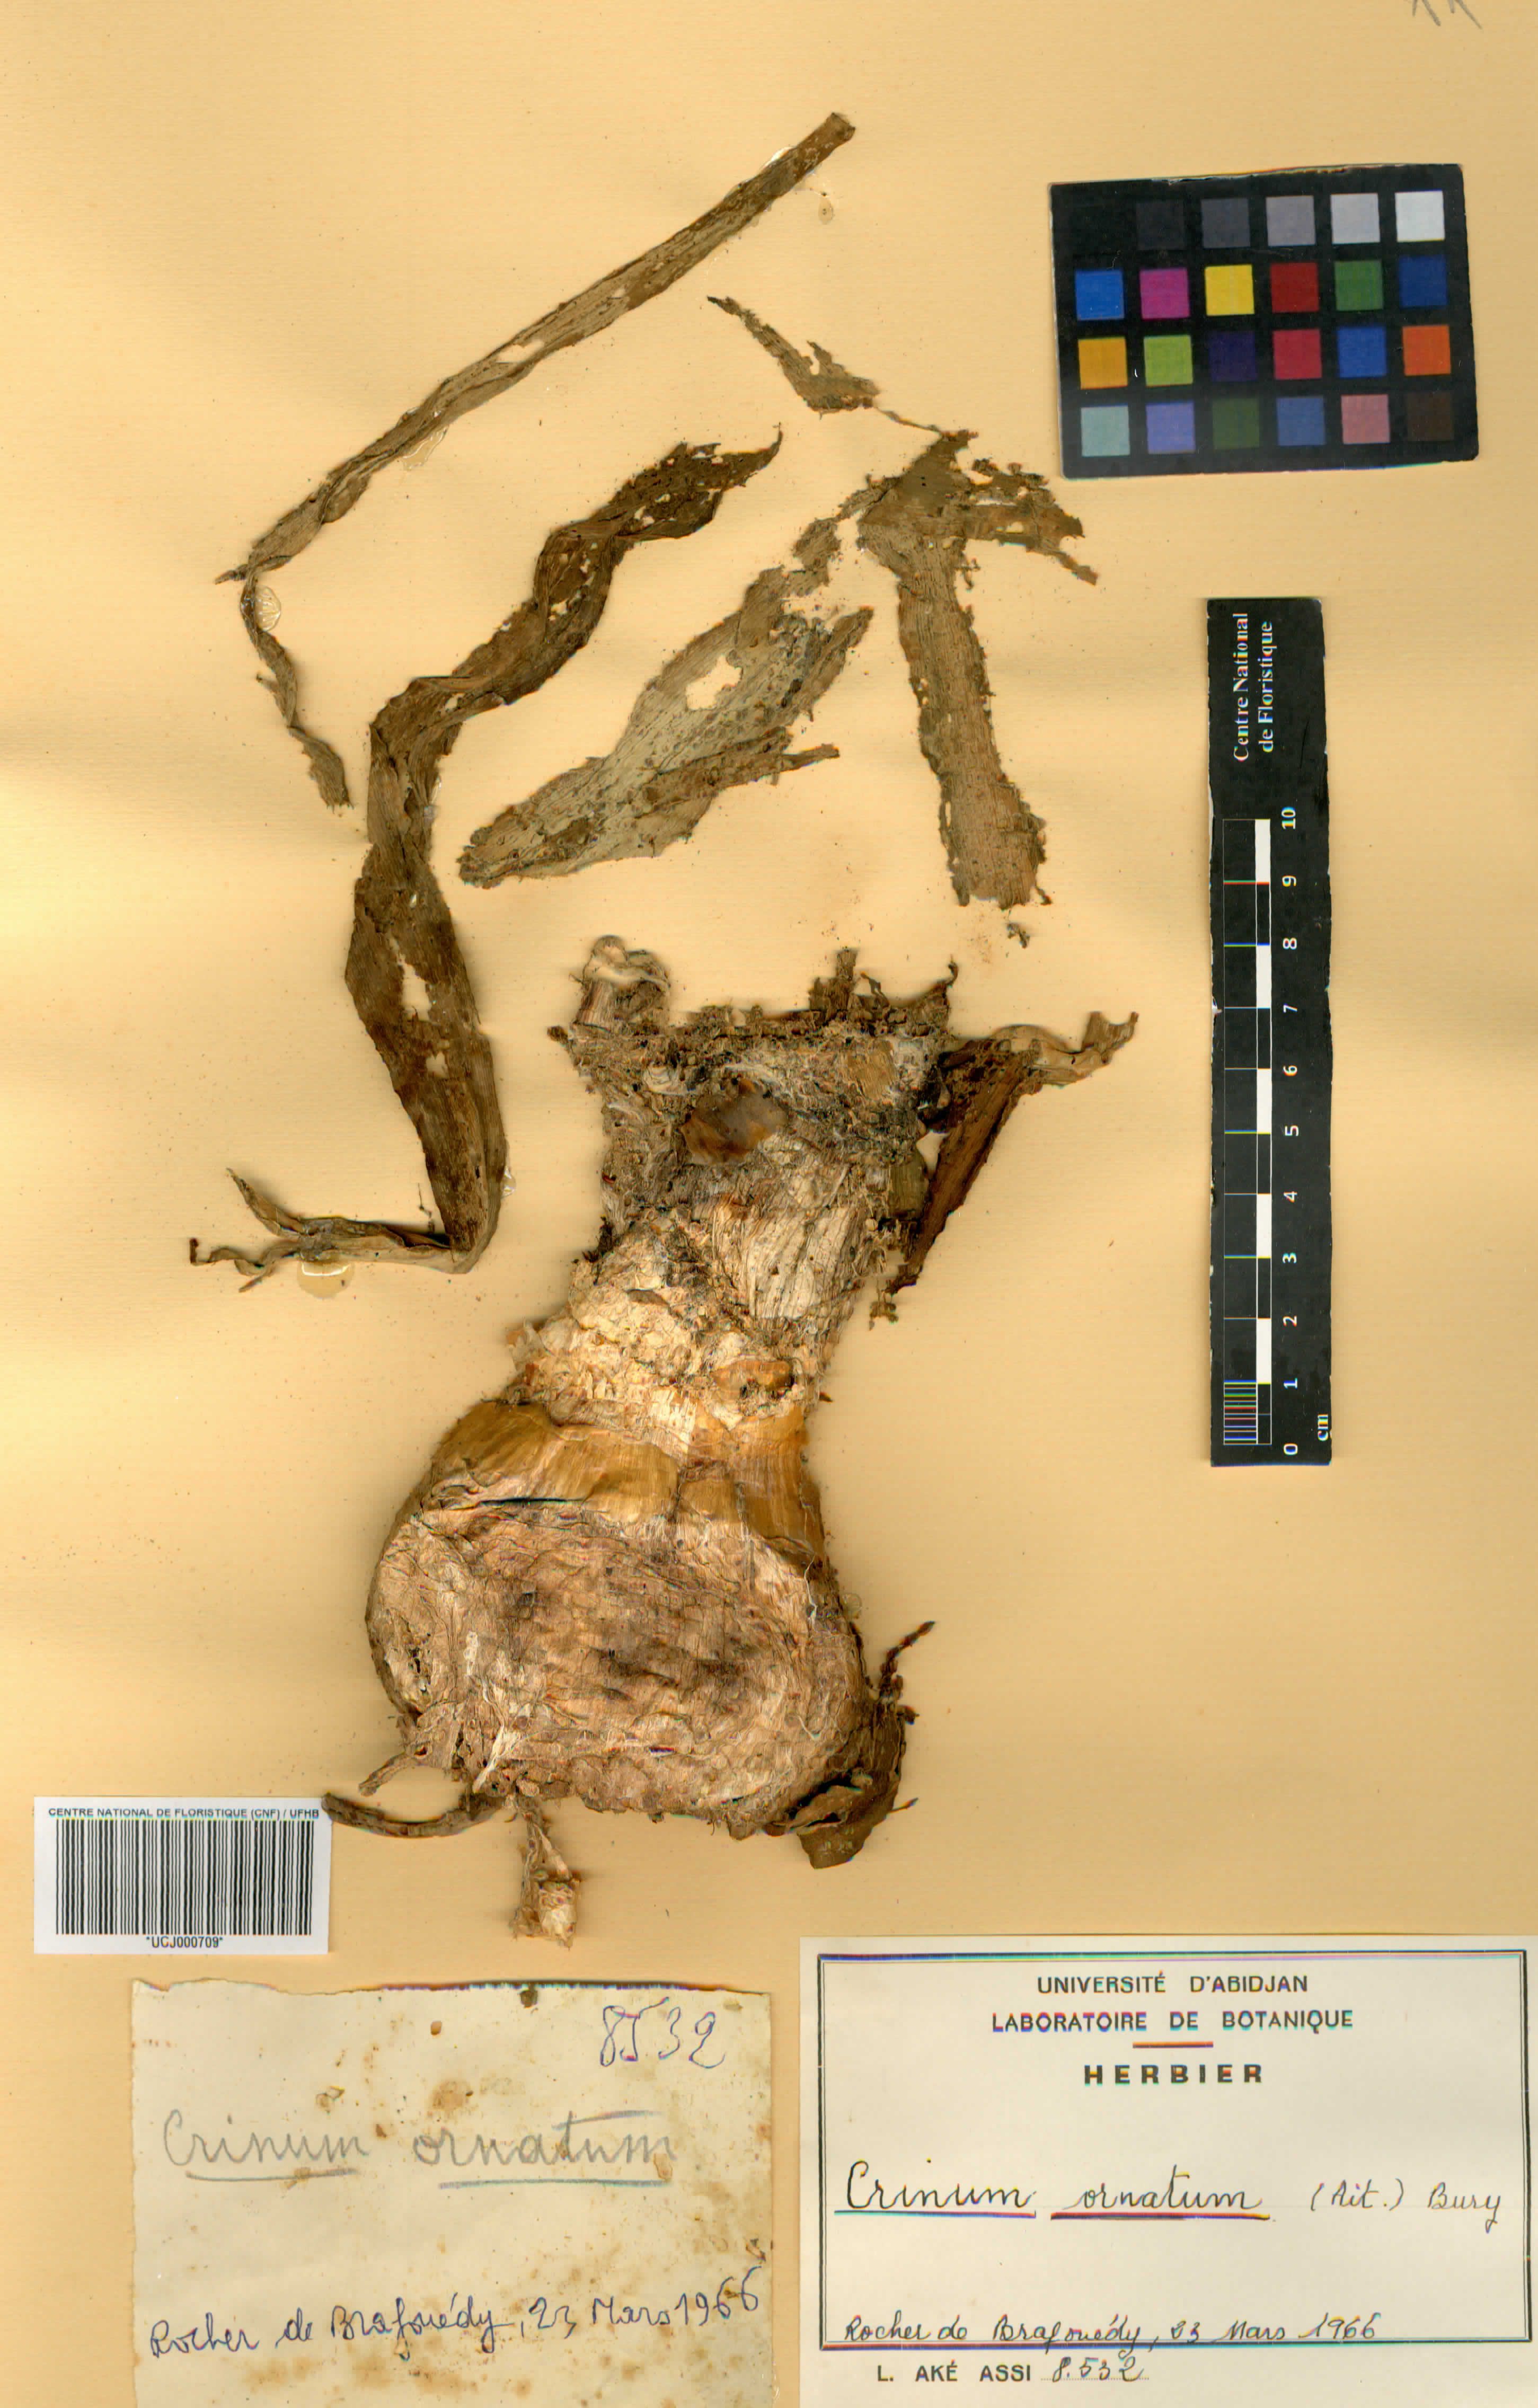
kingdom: Plantae
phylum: Tracheophyta
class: Liliopsida
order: Asparagales
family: Amaryllidaceae
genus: Crinum
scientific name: Crinum ornatum
